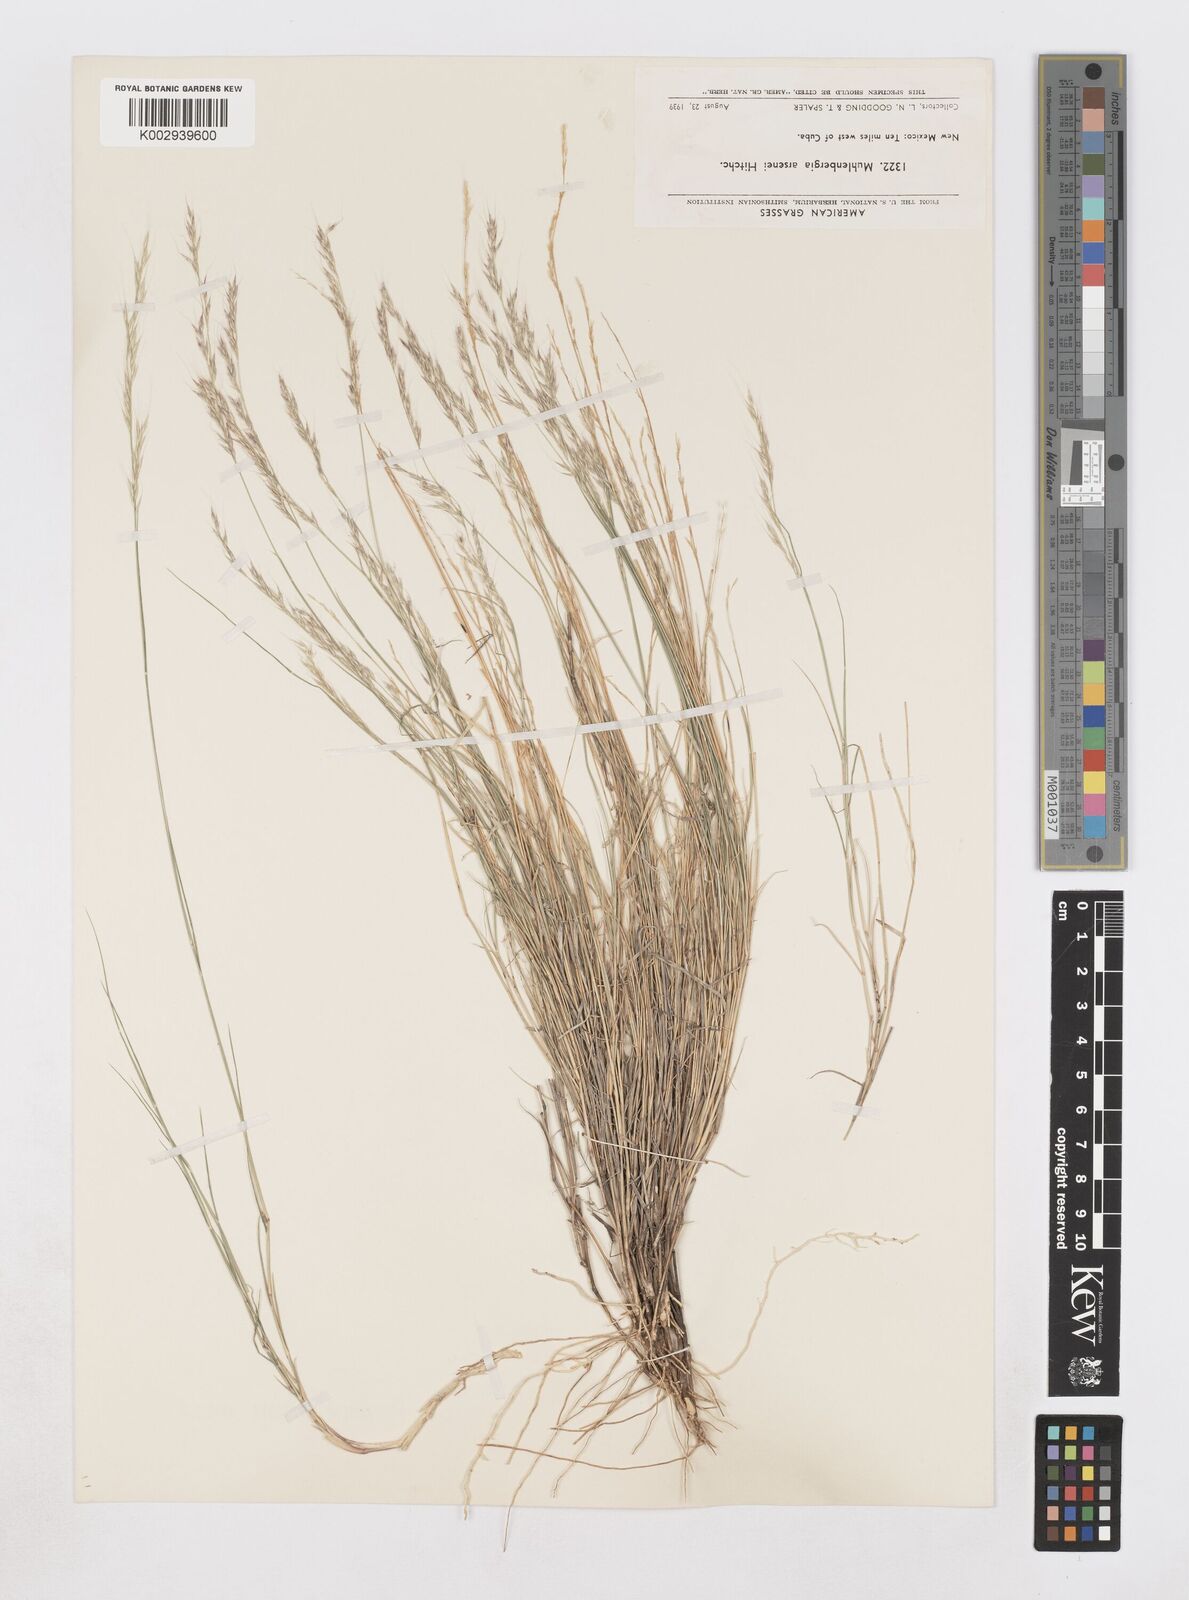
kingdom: Plantae
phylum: Tracheophyta
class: Liliopsida
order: Poales
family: Poaceae
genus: Muhlenbergia
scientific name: Muhlenbergia arsenei
